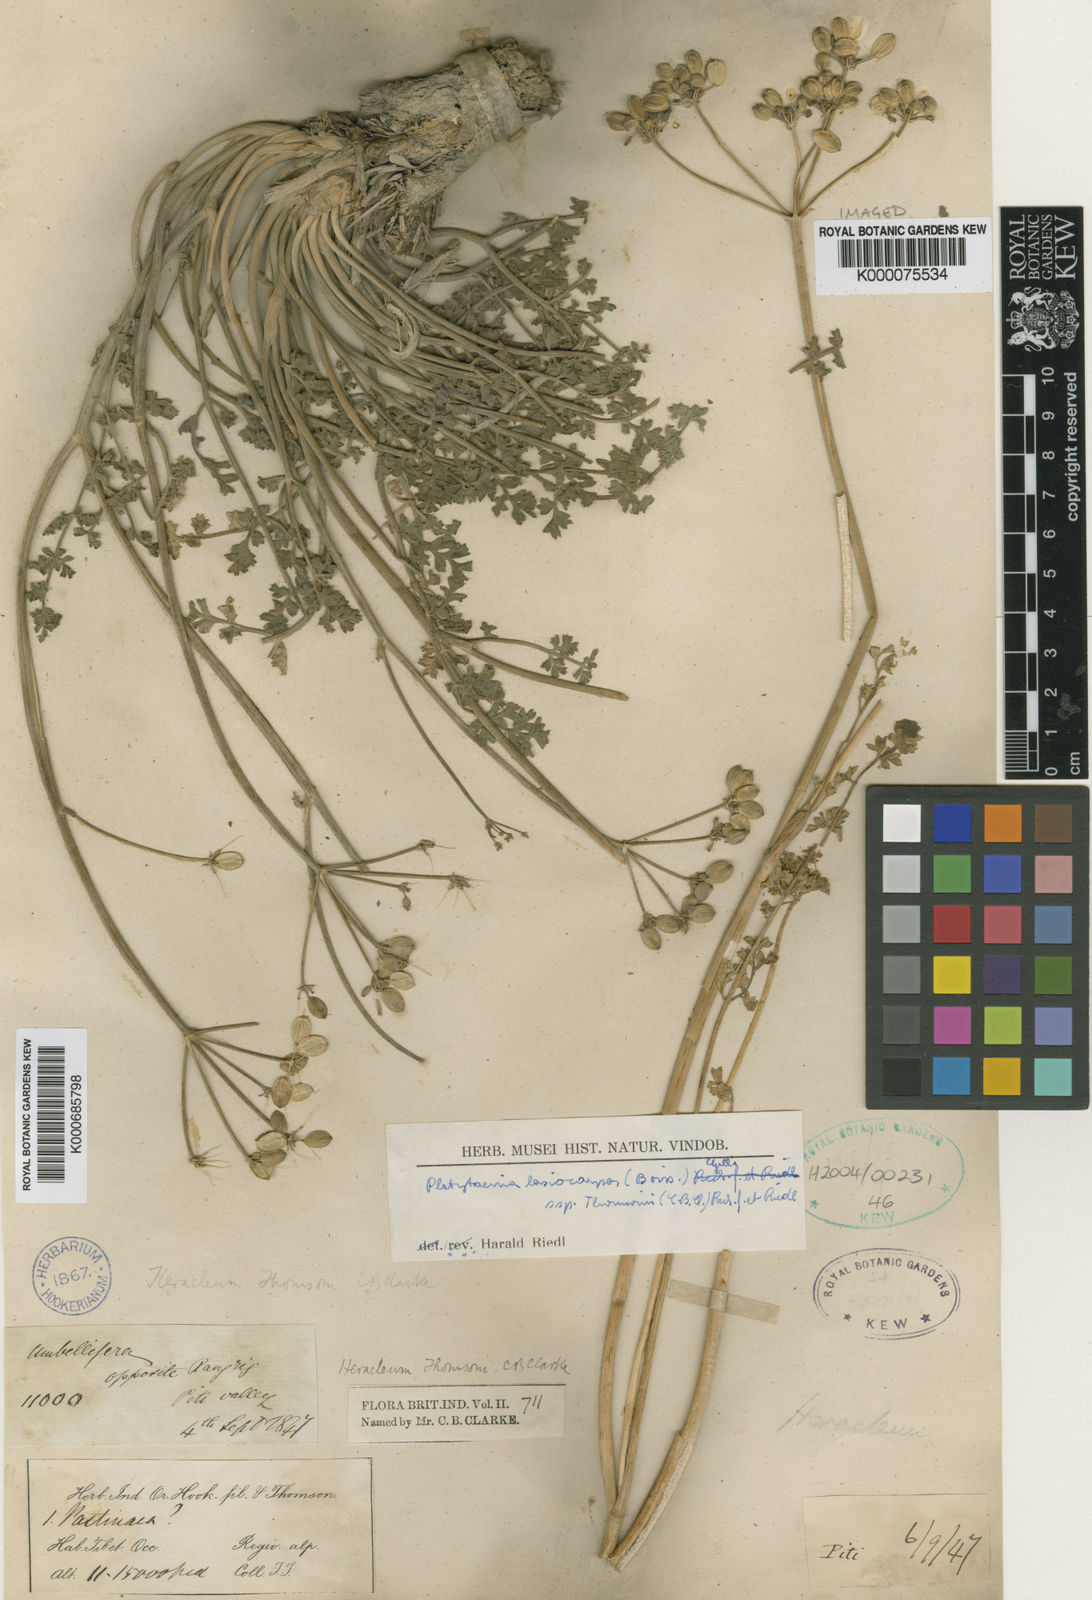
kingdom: Plantae
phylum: Tracheophyta
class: Polypodiopsida
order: Polypodiales
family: Pteridaceae
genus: Taenitis
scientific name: Taenitis
